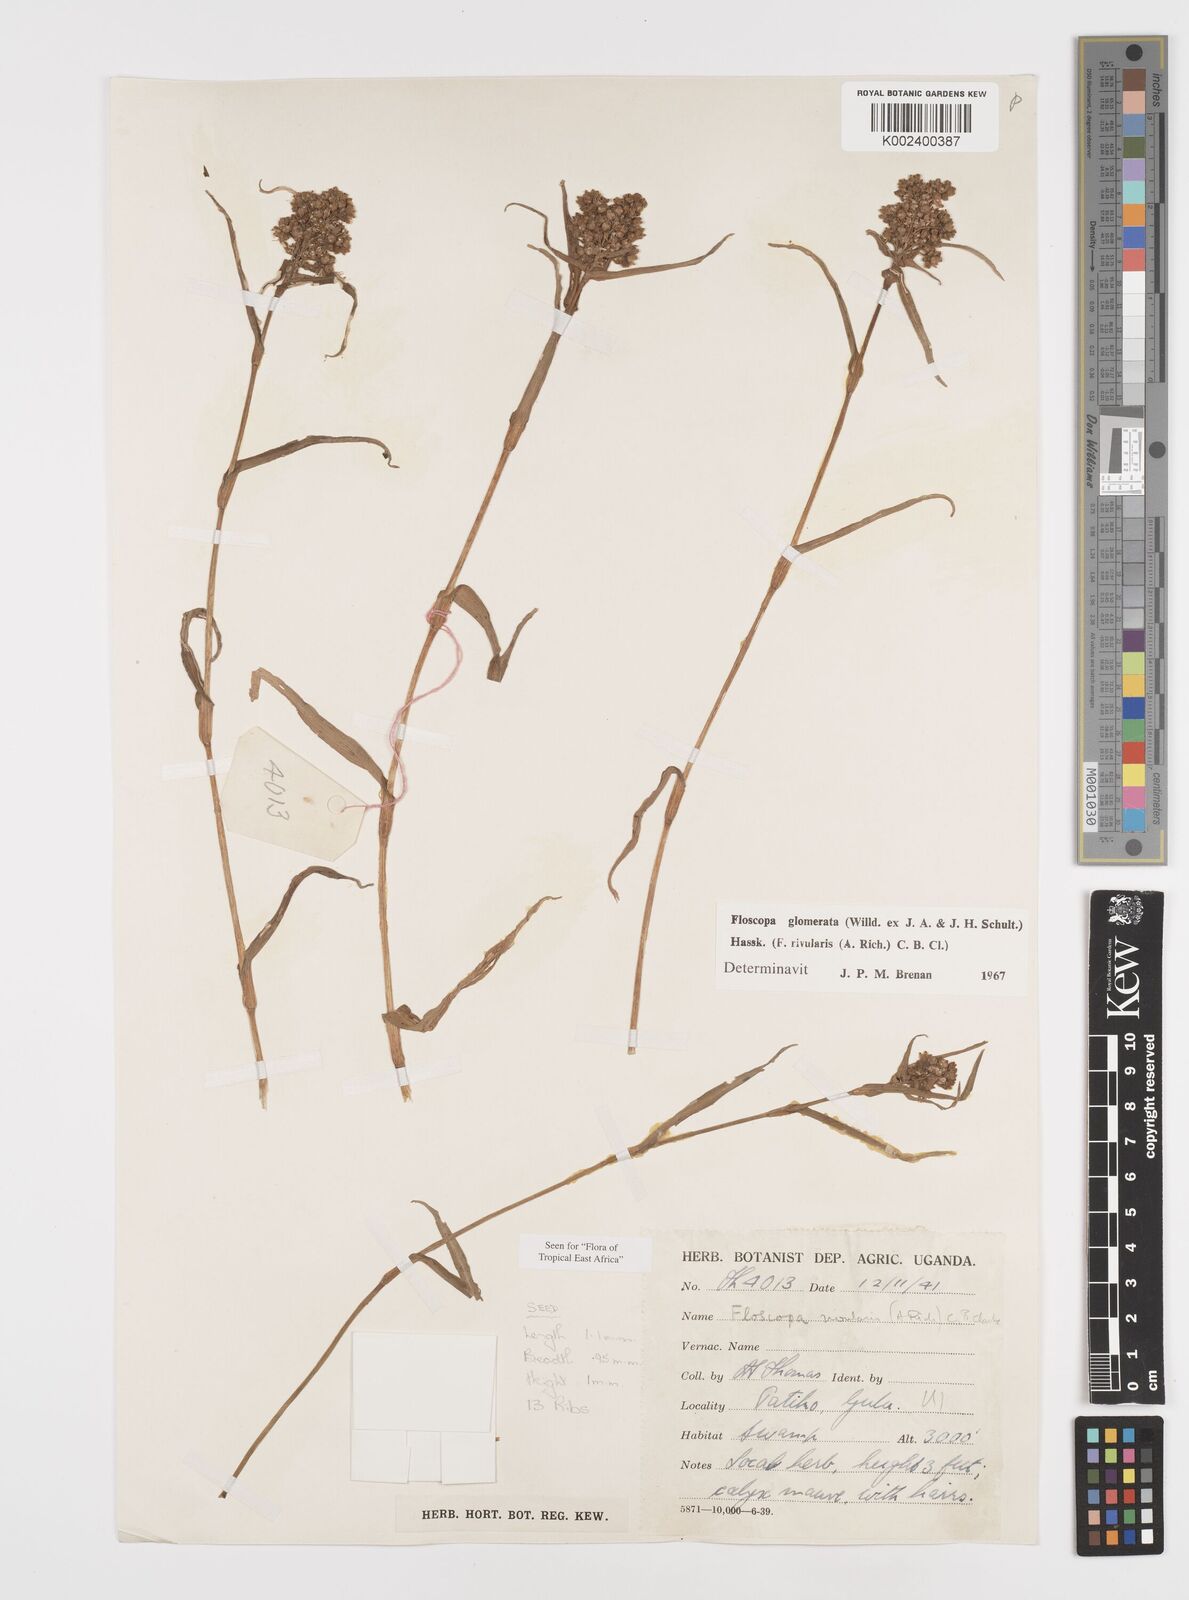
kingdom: Plantae
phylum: Tracheophyta
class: Liliopsida
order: Commelinales
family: Commelinaceae
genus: Floscopa
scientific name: Floscopa glomerata
